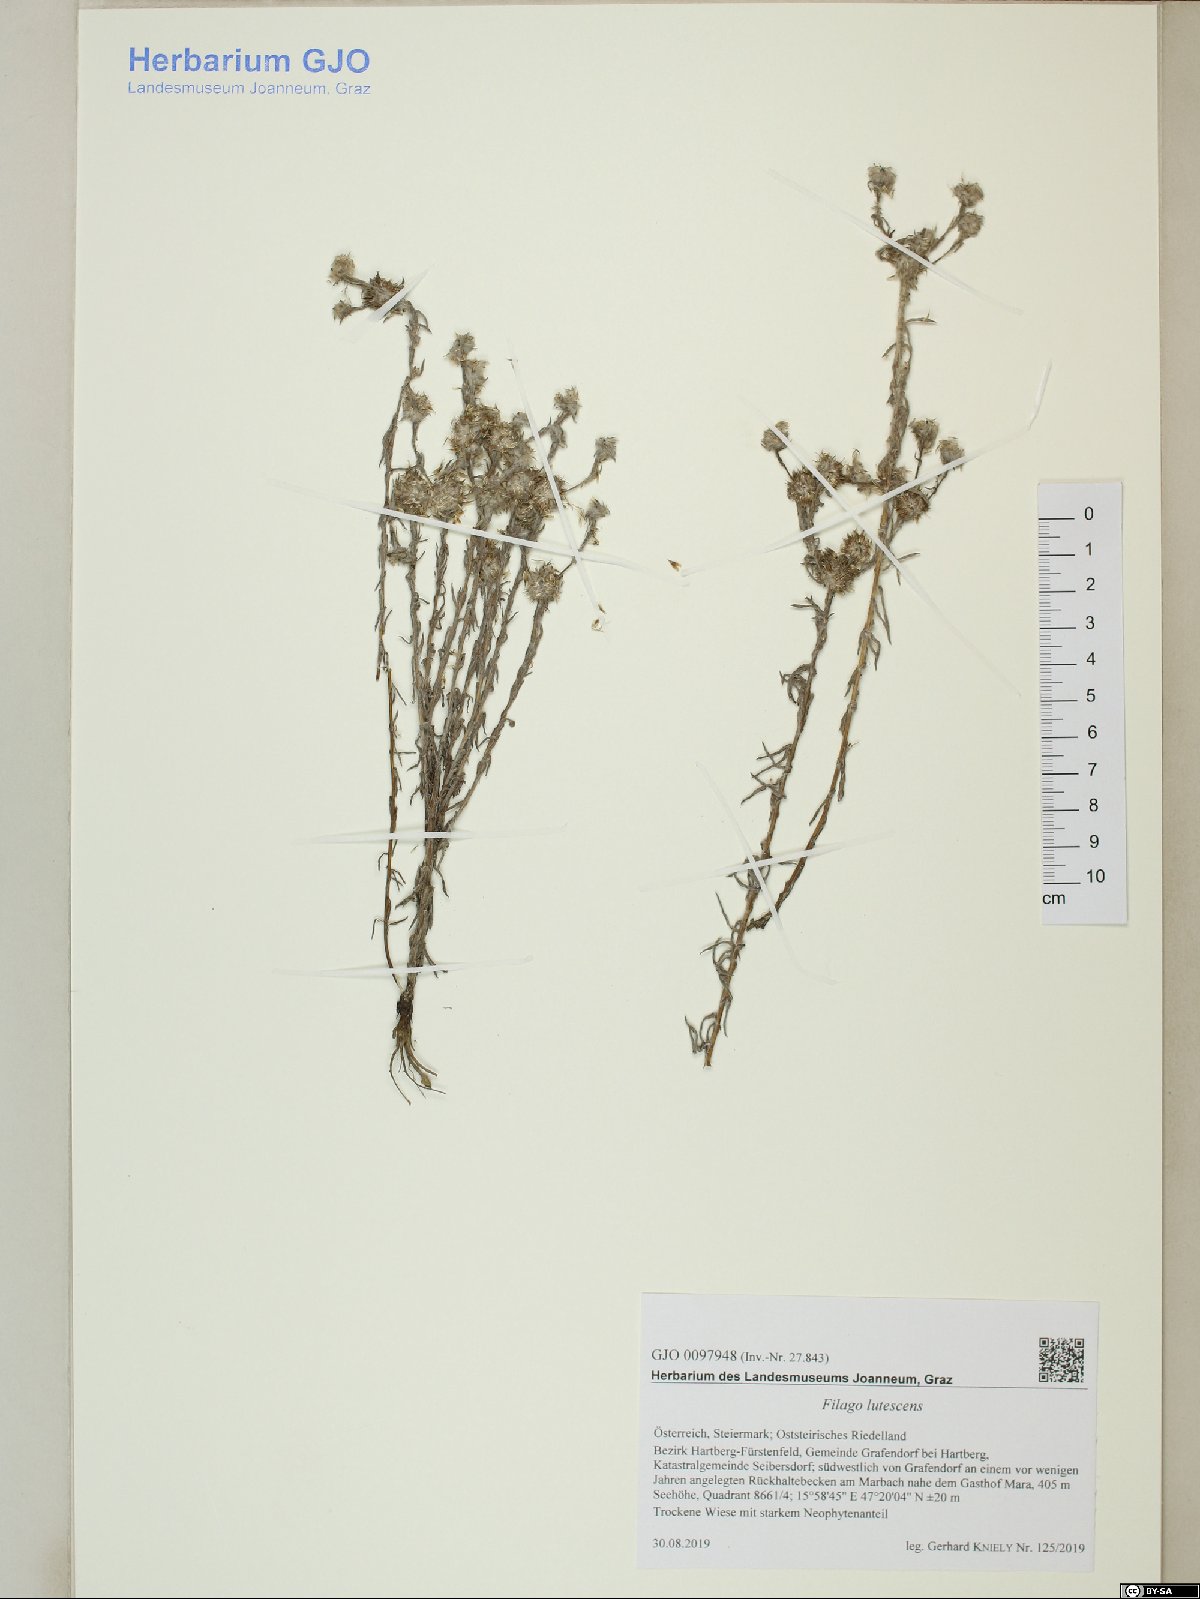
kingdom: Plantae
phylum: Tracheophyta
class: Magnoliopsida
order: Asterales
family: Asteraceae
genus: Filago
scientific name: Filago lutescens
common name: Red-tipped cudweed
